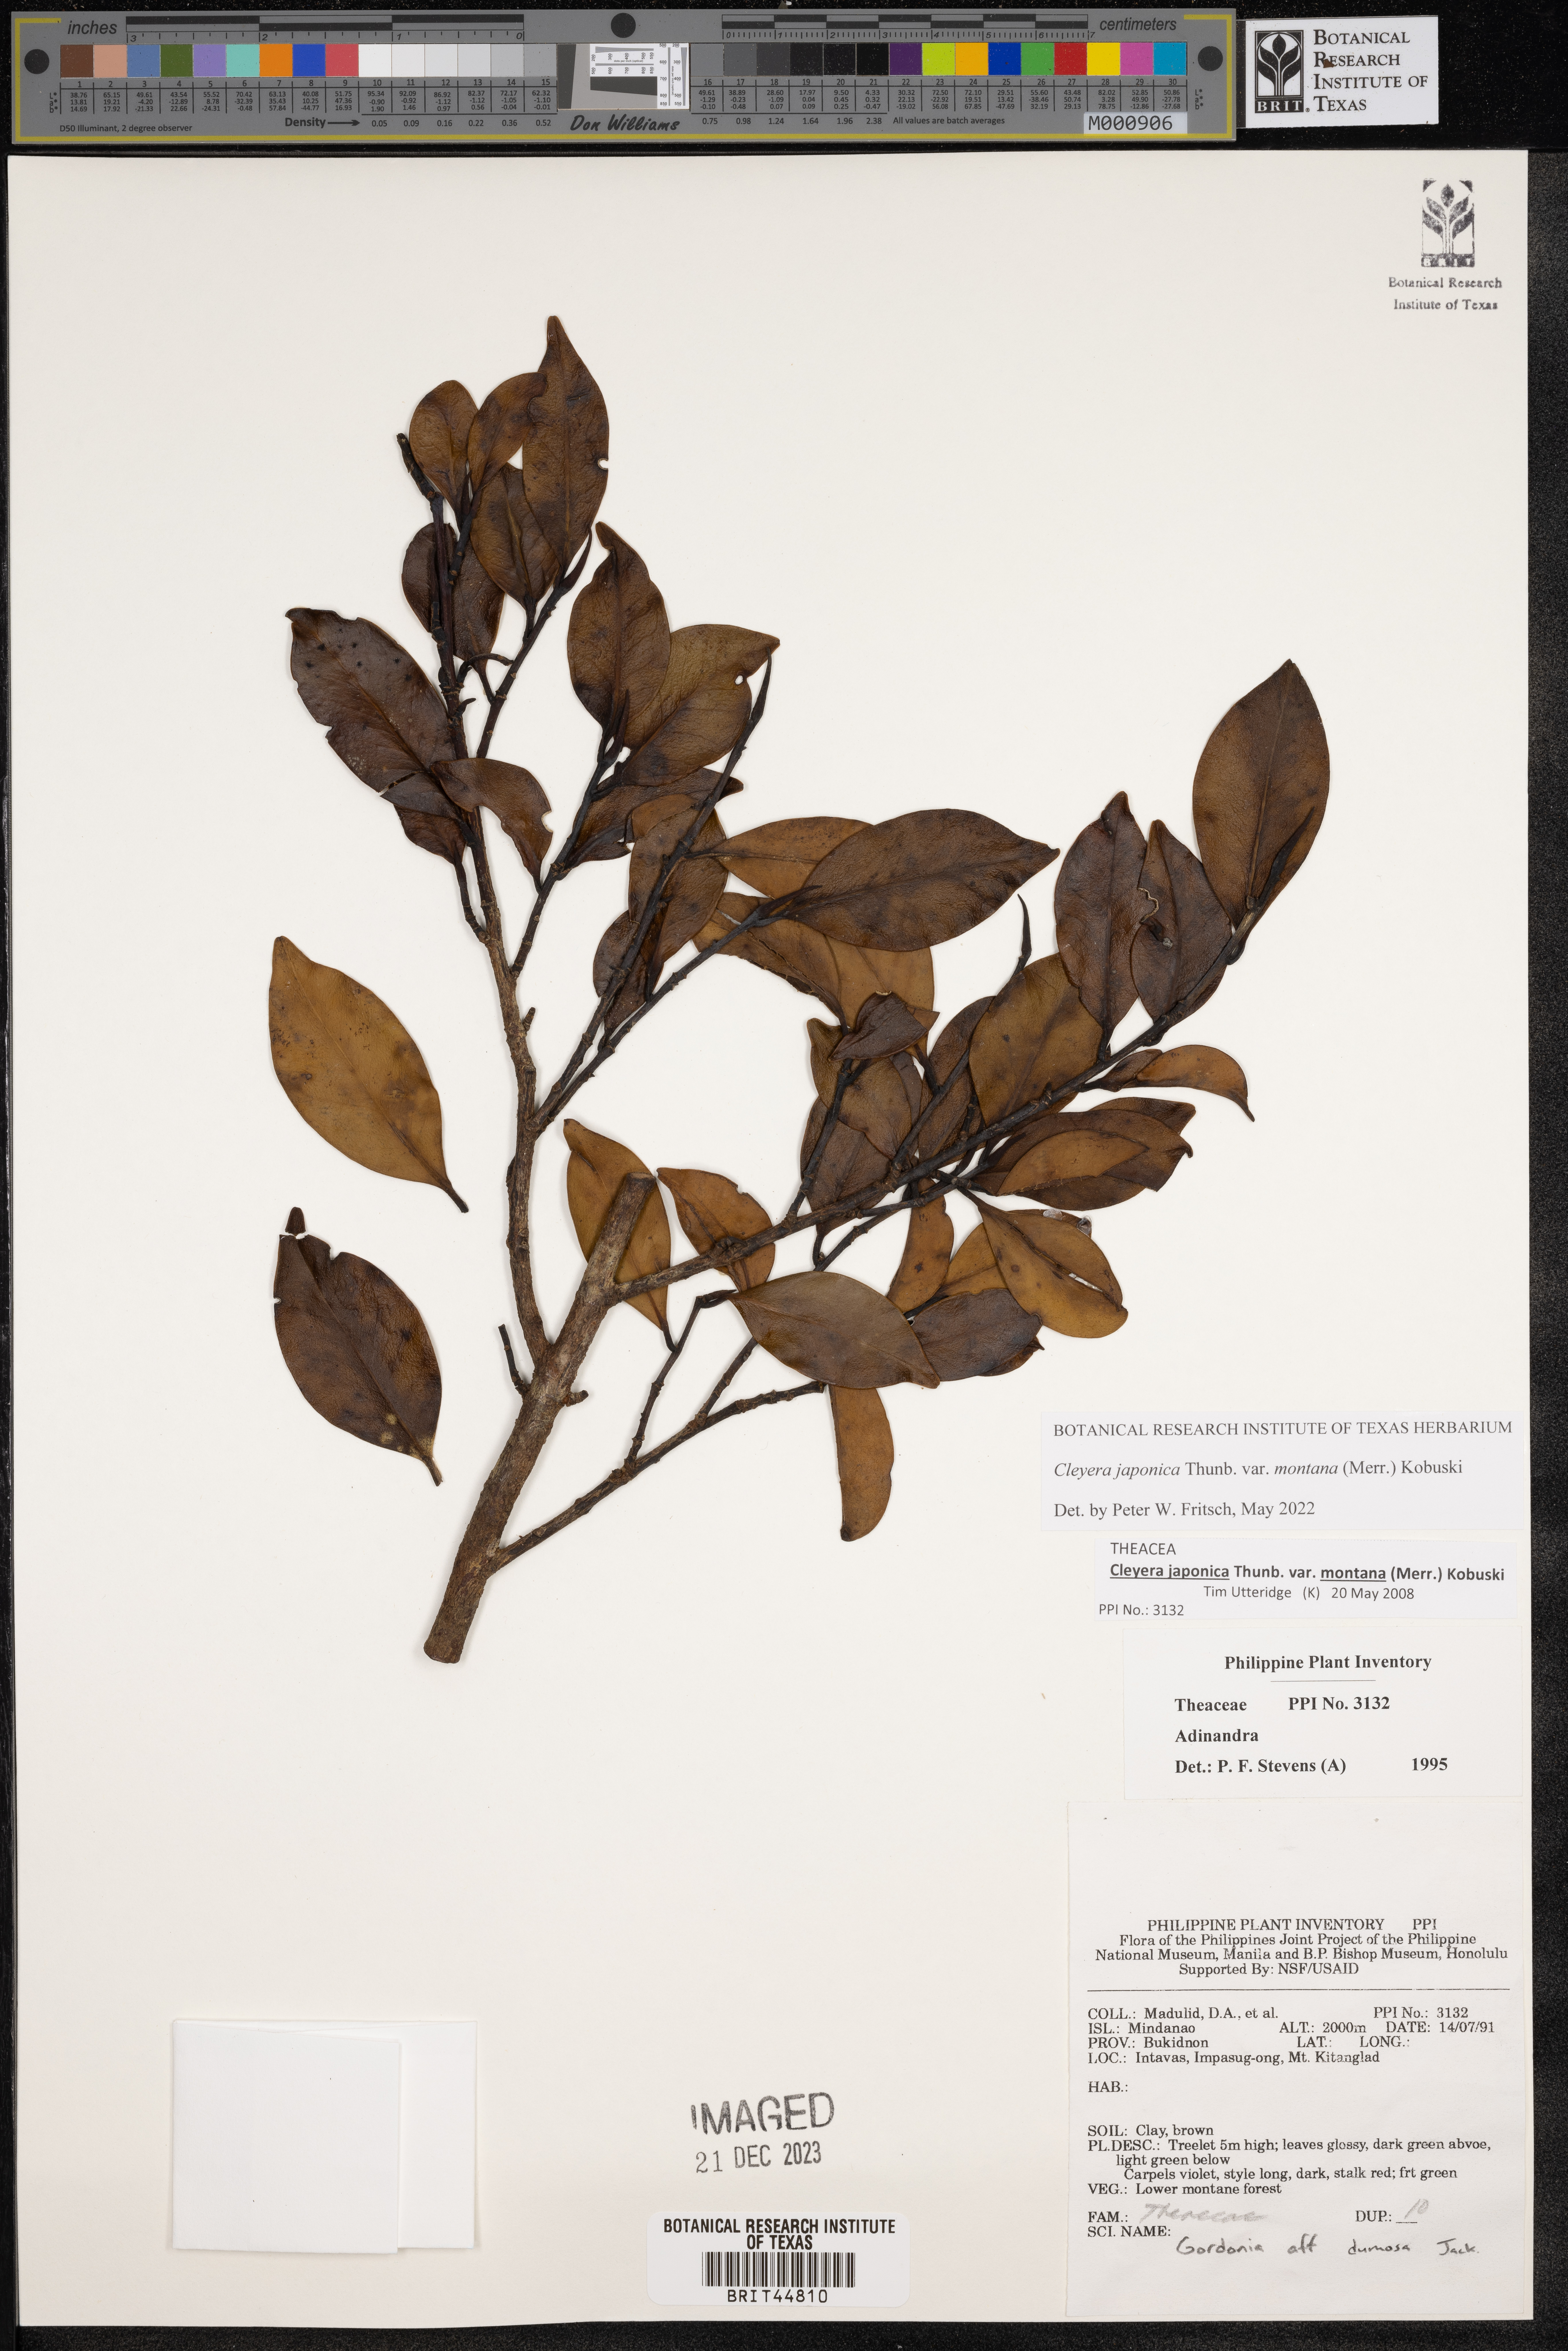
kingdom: Plantae
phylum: Tracheophyta
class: Magnoliopsida
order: Ericales
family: Pentaphylacaceae
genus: Cleyera
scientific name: Cleyera japonica
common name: Sakaki
